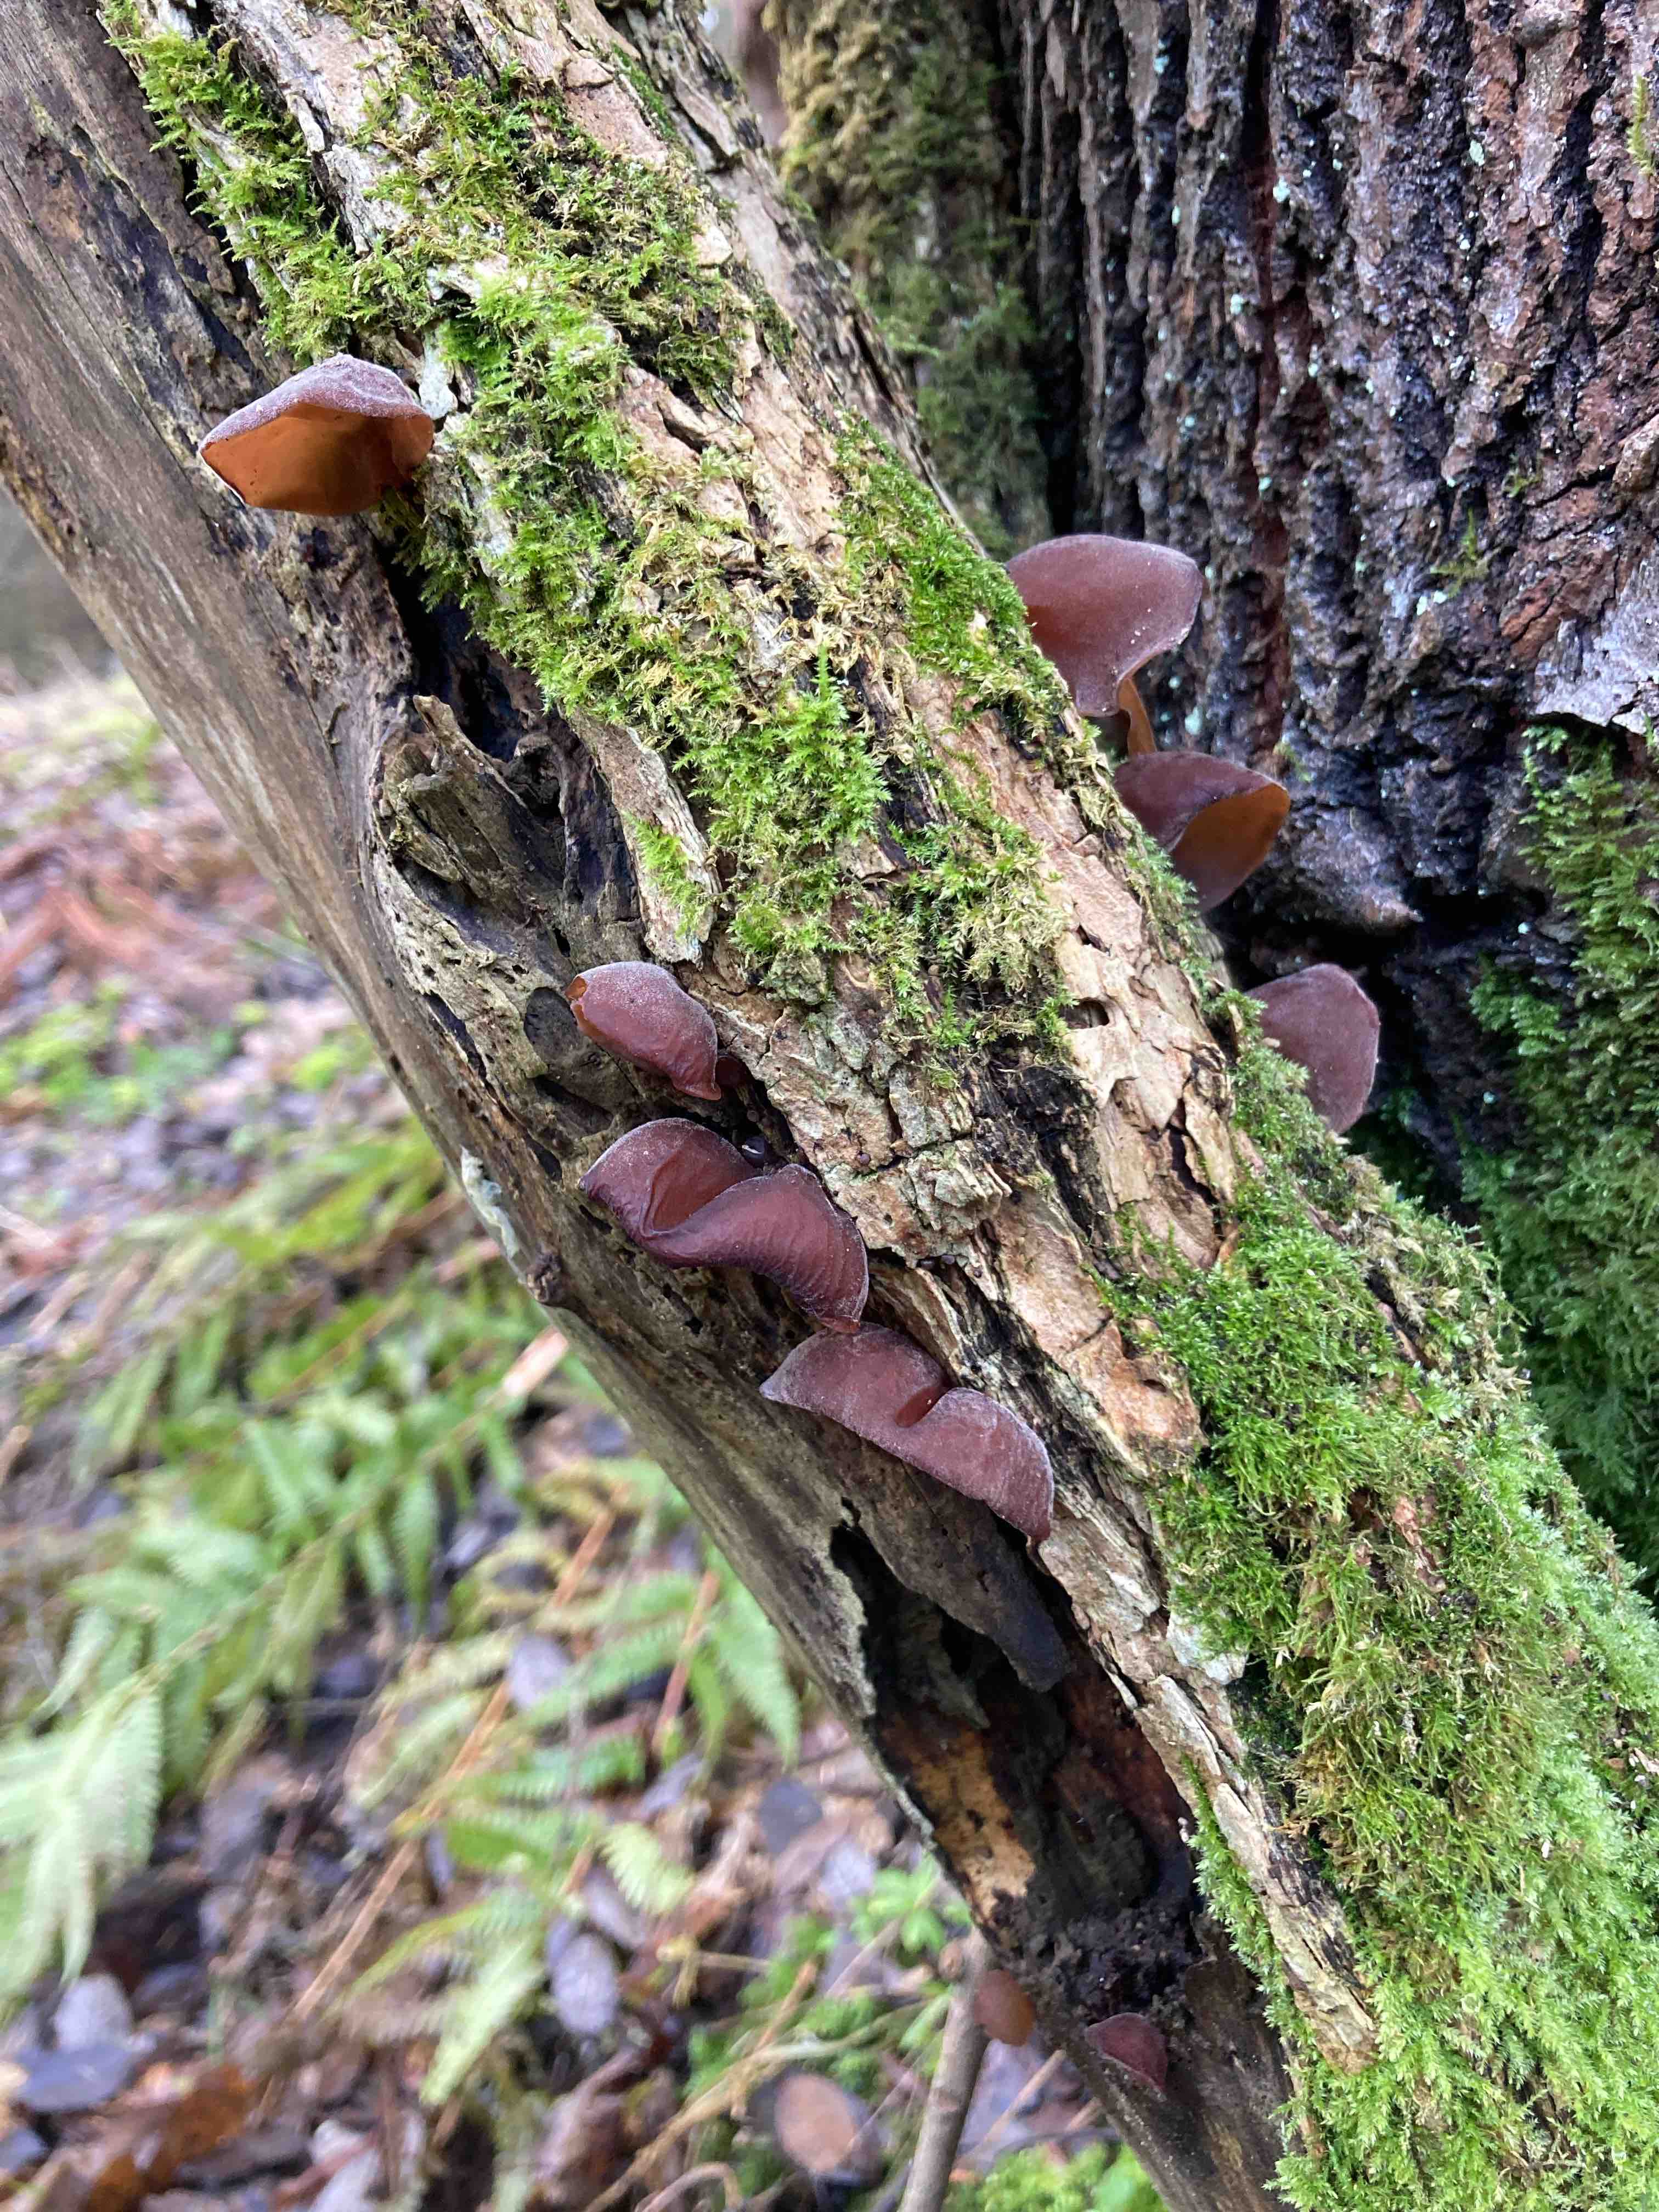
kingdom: Fungi
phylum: Basidiomycota
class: Agaricomycetes
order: Auriculariales
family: Auriculariaceae
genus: Auricularia
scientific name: Auricularia auricula-judae
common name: almindelig judasøre
